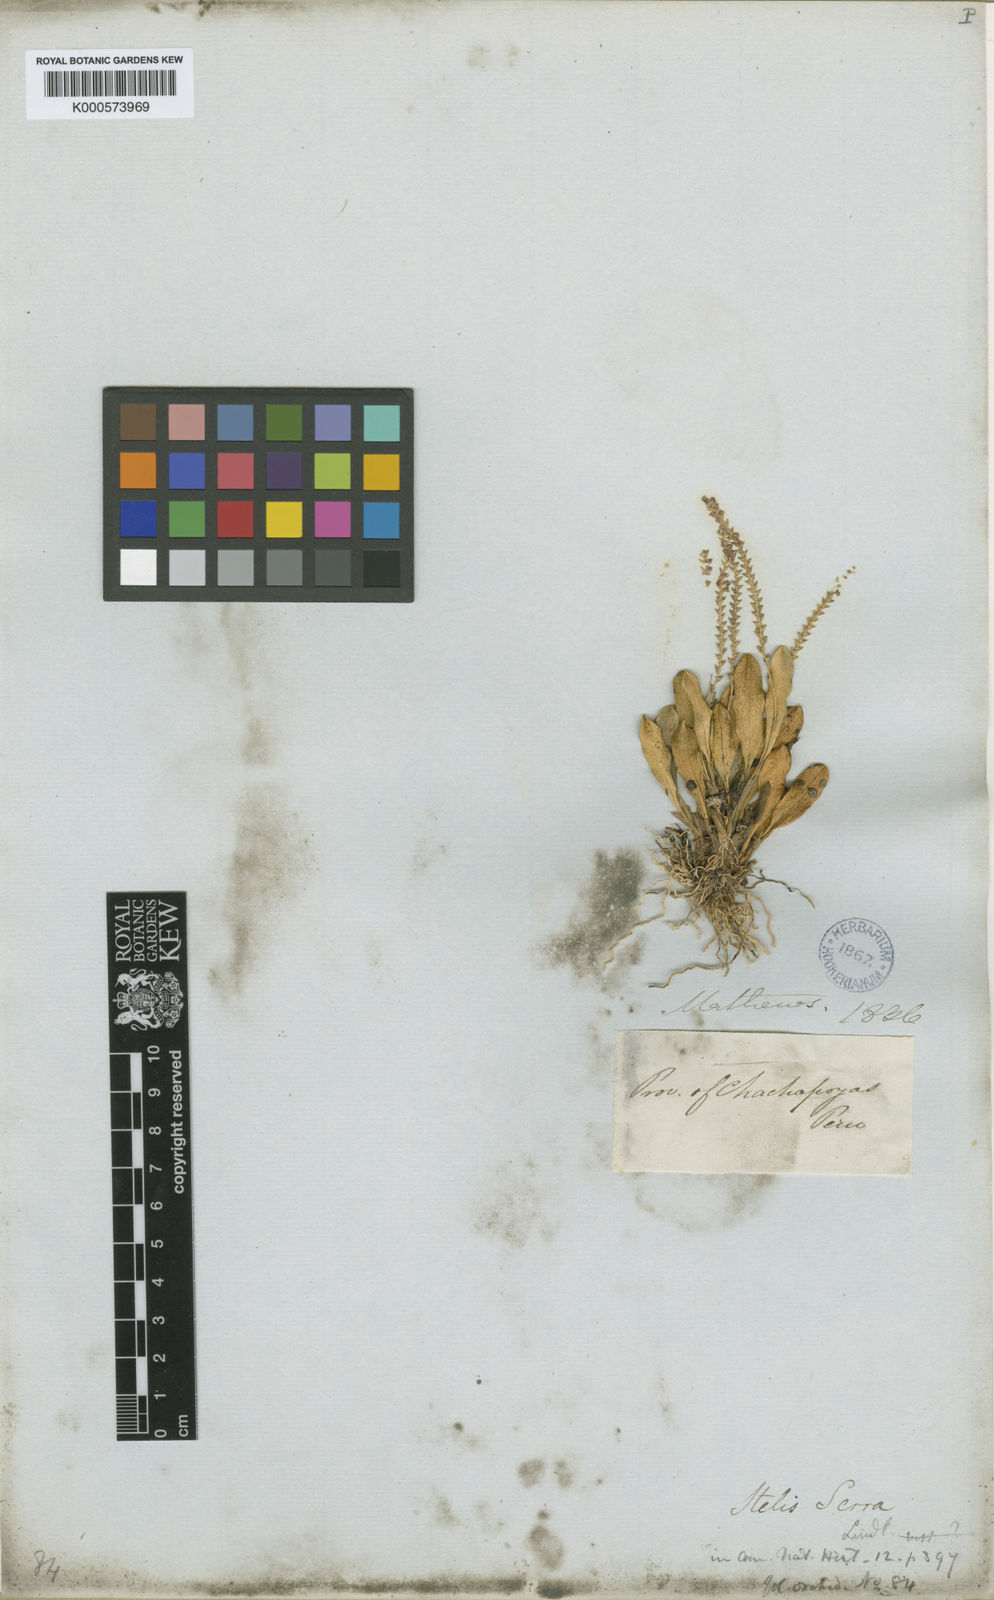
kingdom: Plantae
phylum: Tracheophyta
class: Liliopsida
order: Asparagales
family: Orchidaceae
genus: Stelis
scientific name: Stelis serra
